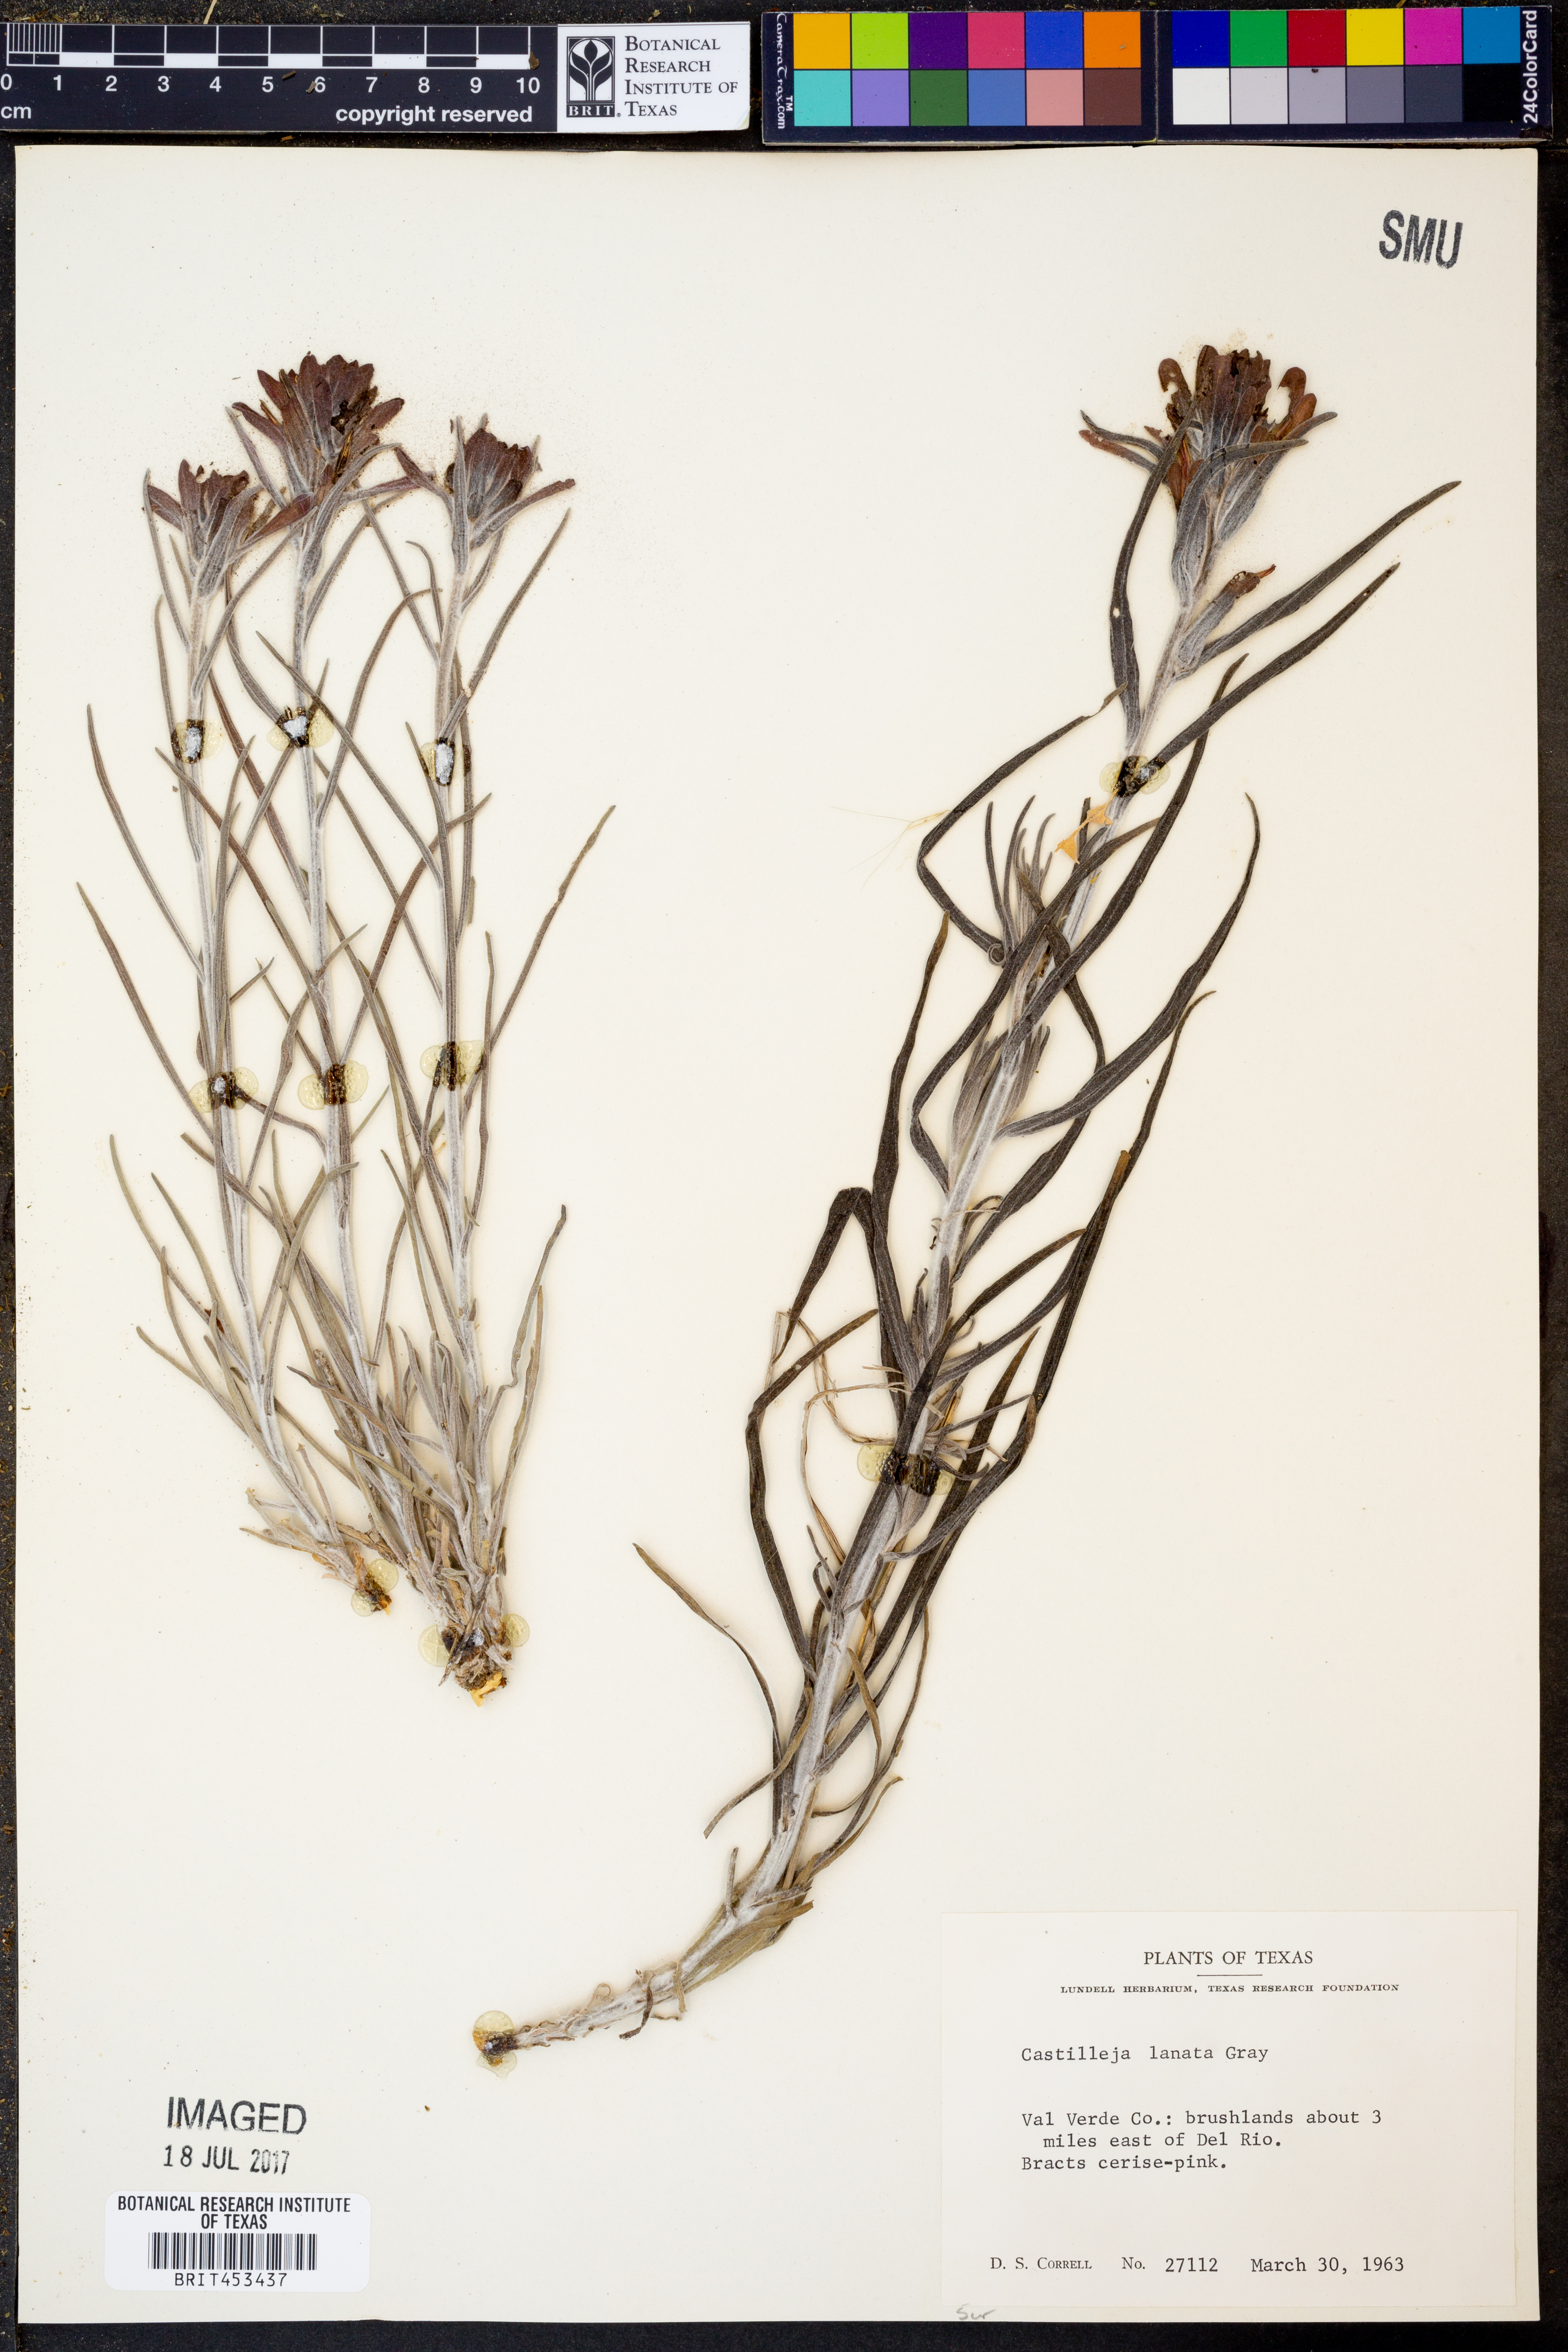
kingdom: Plantae
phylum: Tracheophyta
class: Magnoliopsida
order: Lamiales
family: Orobanchaceae
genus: Castilleja
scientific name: Castilleja lanata
